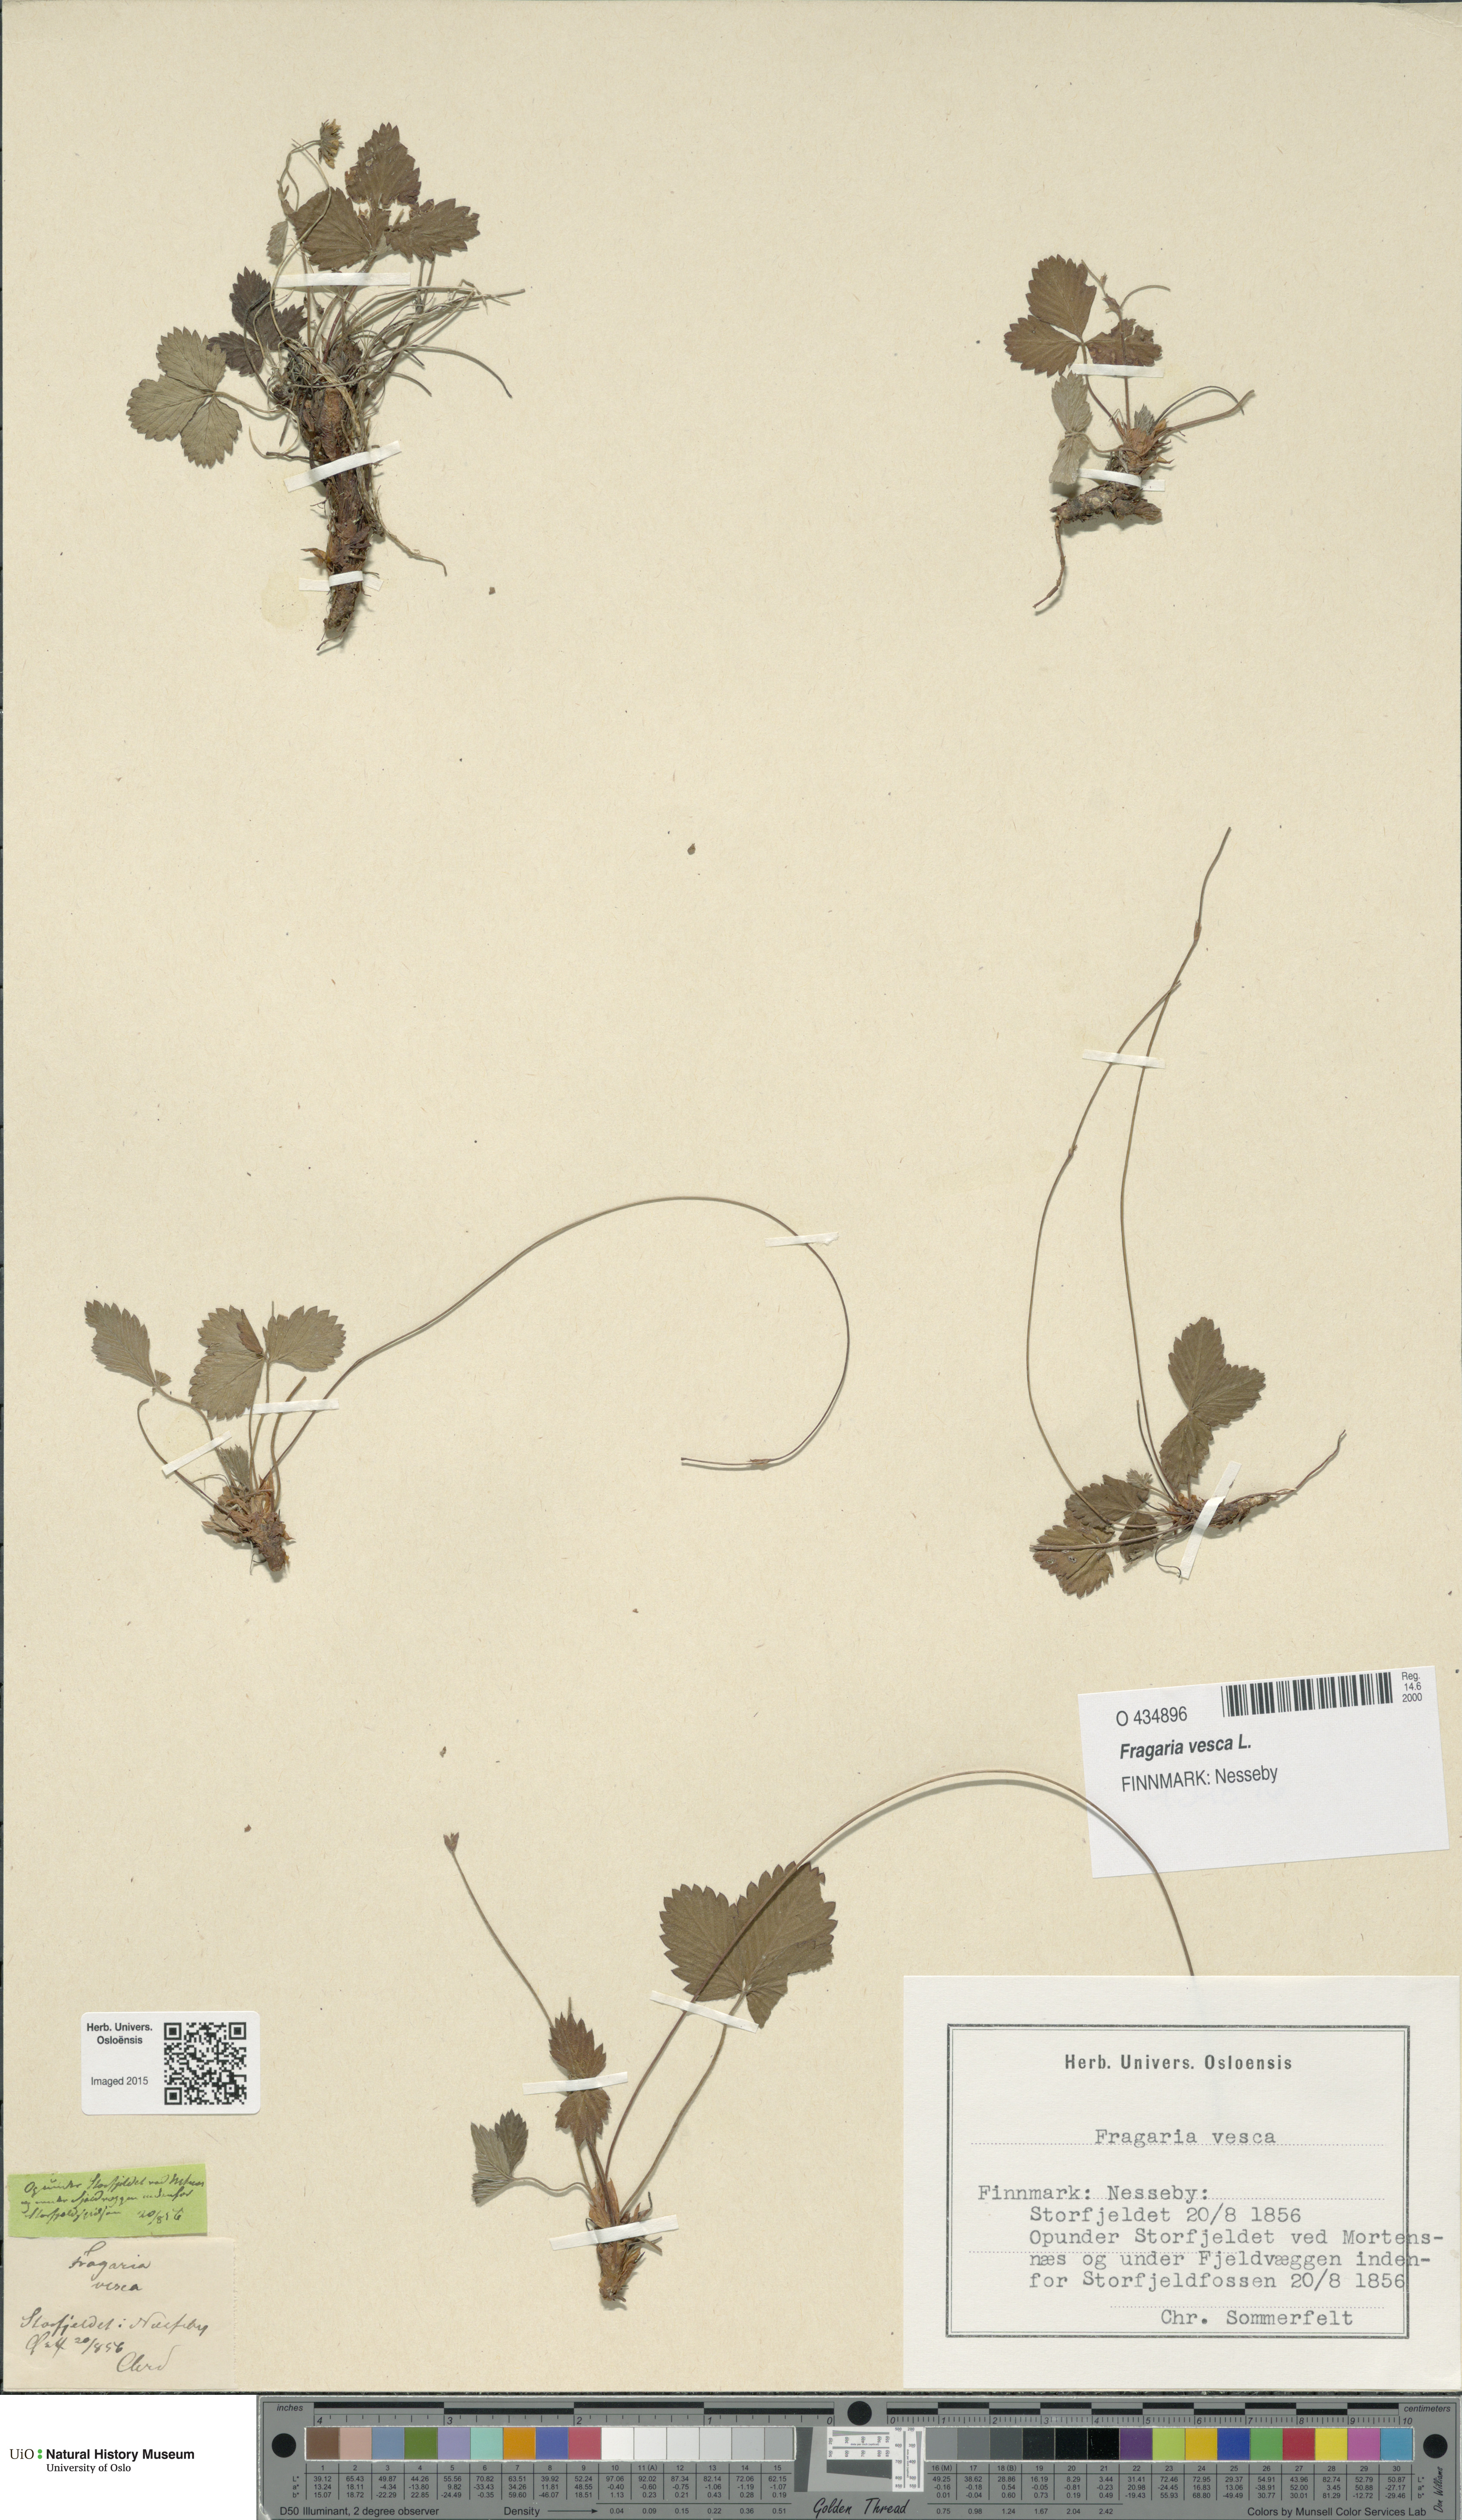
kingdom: Plantae
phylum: Tracheophyta
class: Magnoliopsida
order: Rosales
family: Rosaceae
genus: Fragaria
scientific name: Fragaria vesca
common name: Wild strawberry
